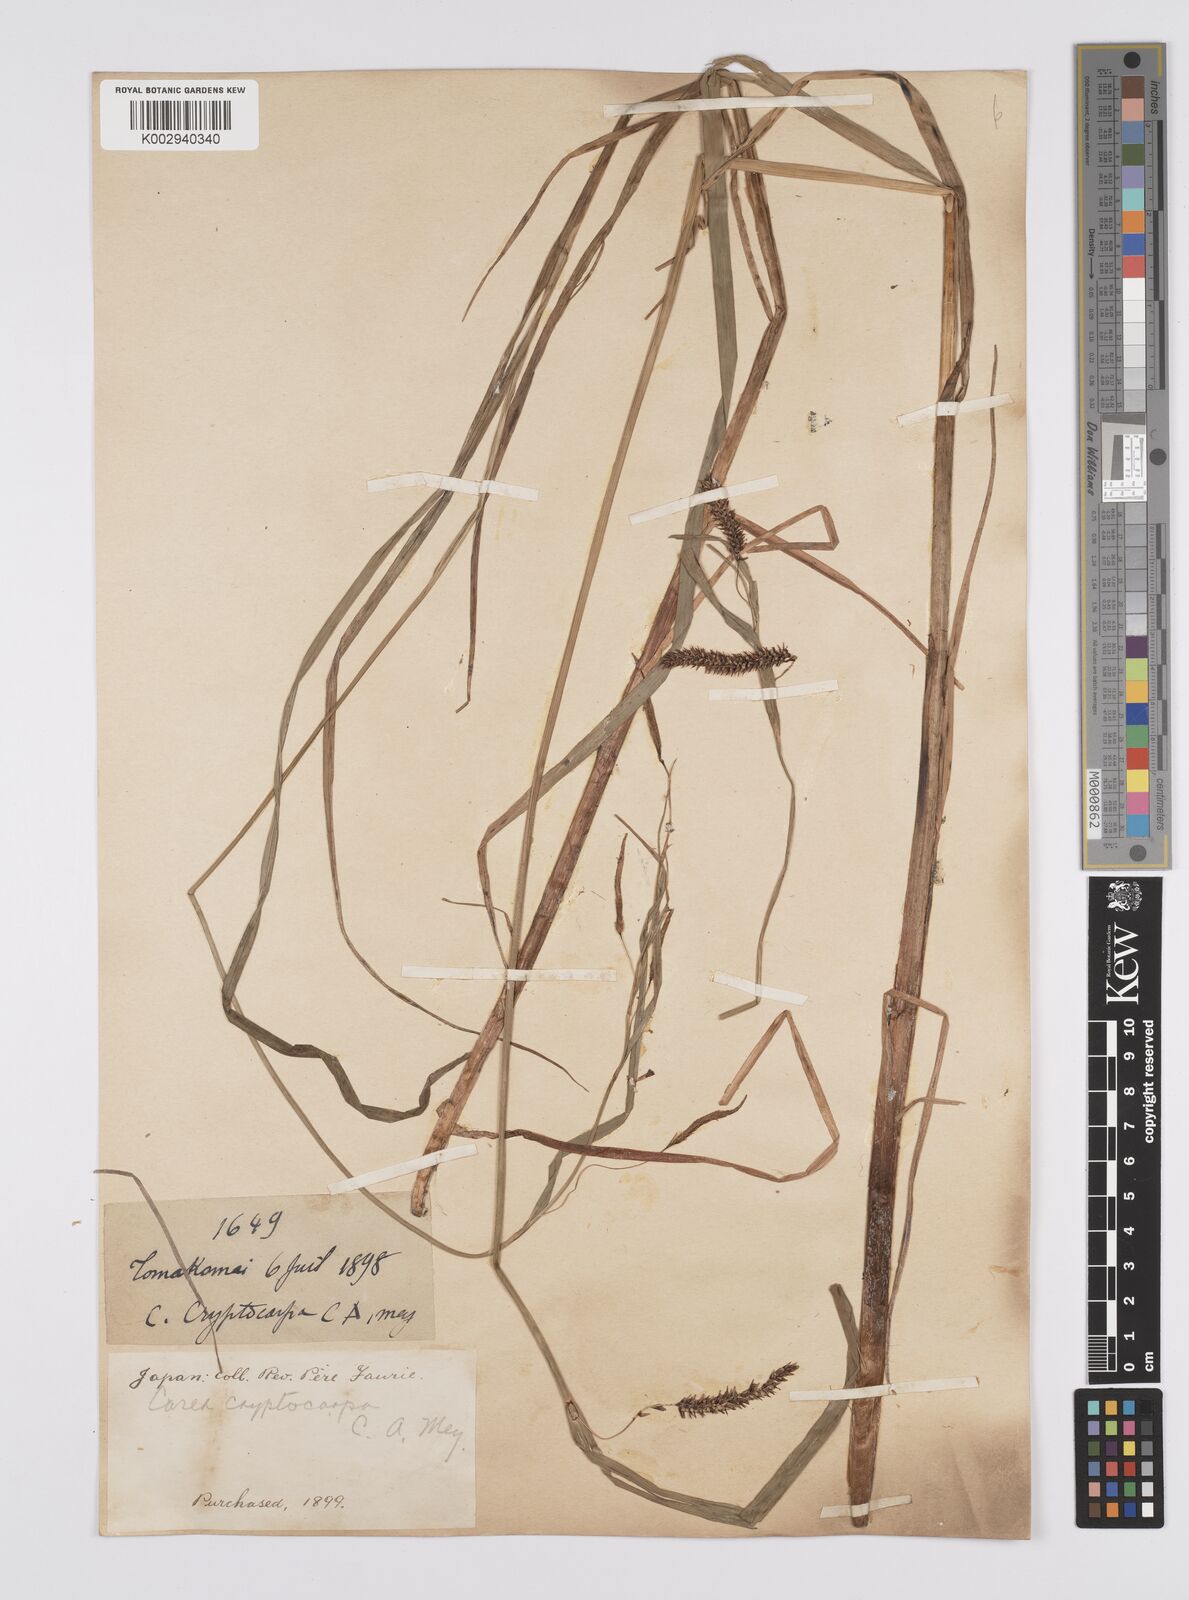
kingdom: Plantae
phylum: Tracheophyta
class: Liliopsida
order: Poales
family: Cyperaceae
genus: Carex
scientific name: Carex lyngbyei
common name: Lyngbye's sedge
